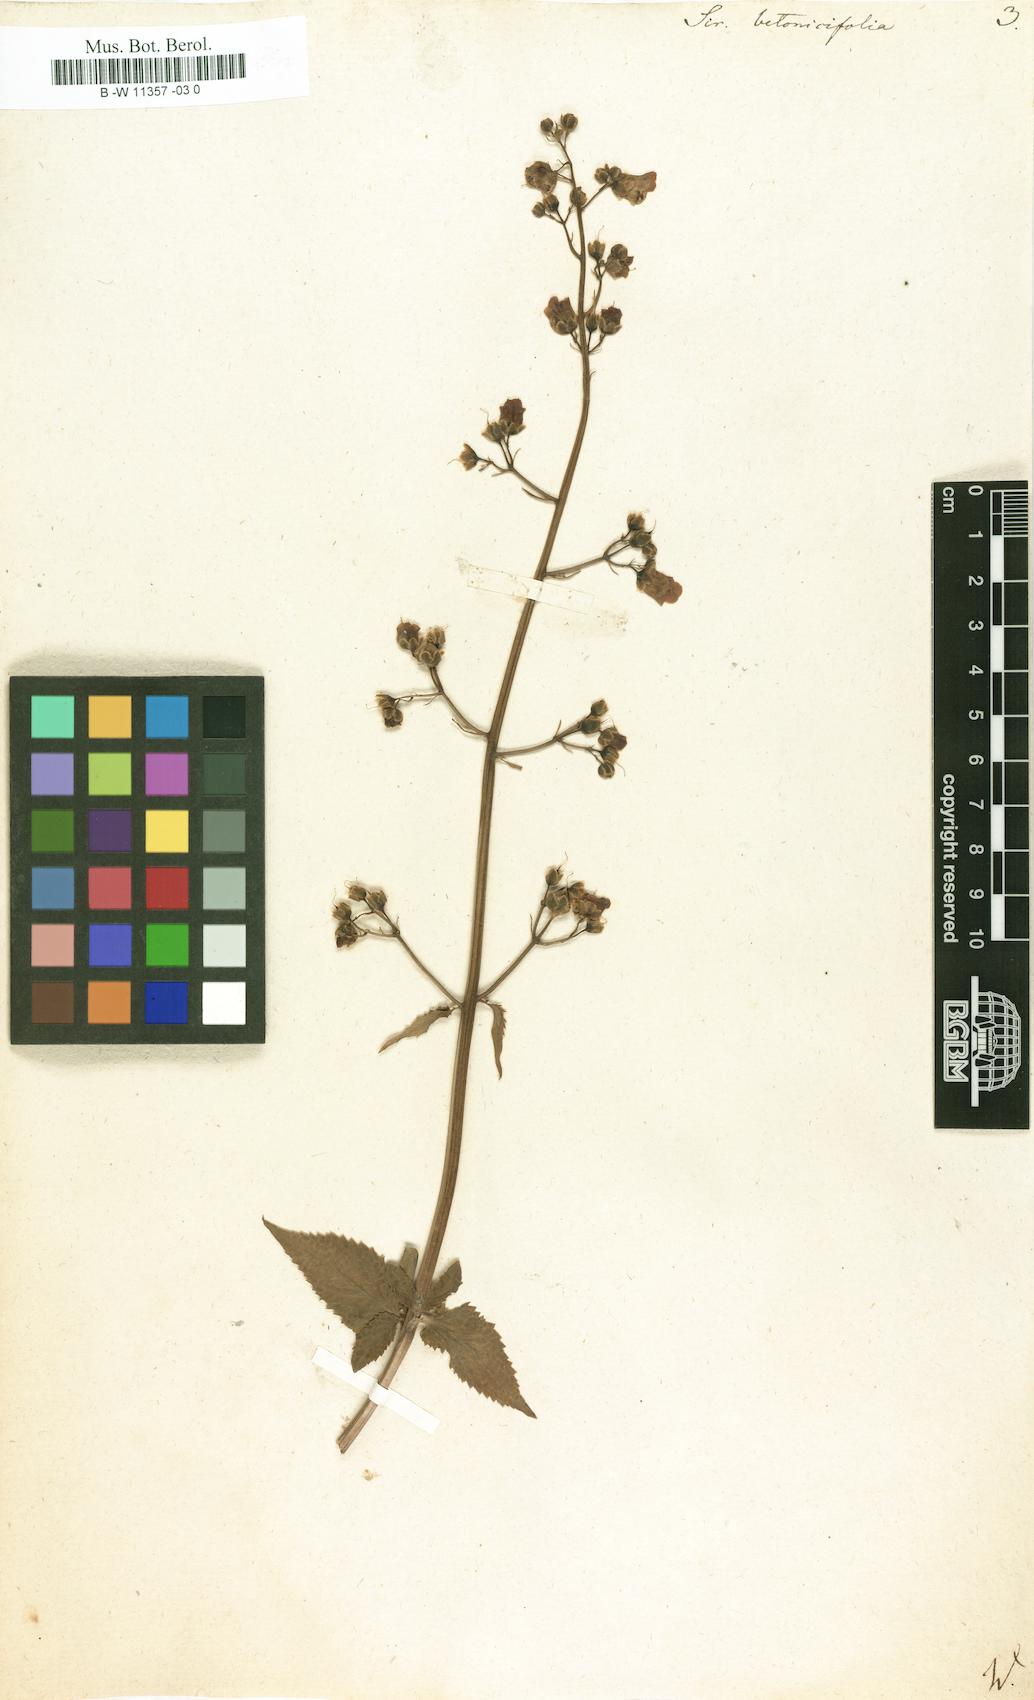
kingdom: Plantae
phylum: Tracheophyta
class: Magnoliopsida
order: Lamiales
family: Scrophulariaceae
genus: Scrophularia
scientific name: Scrophularia
